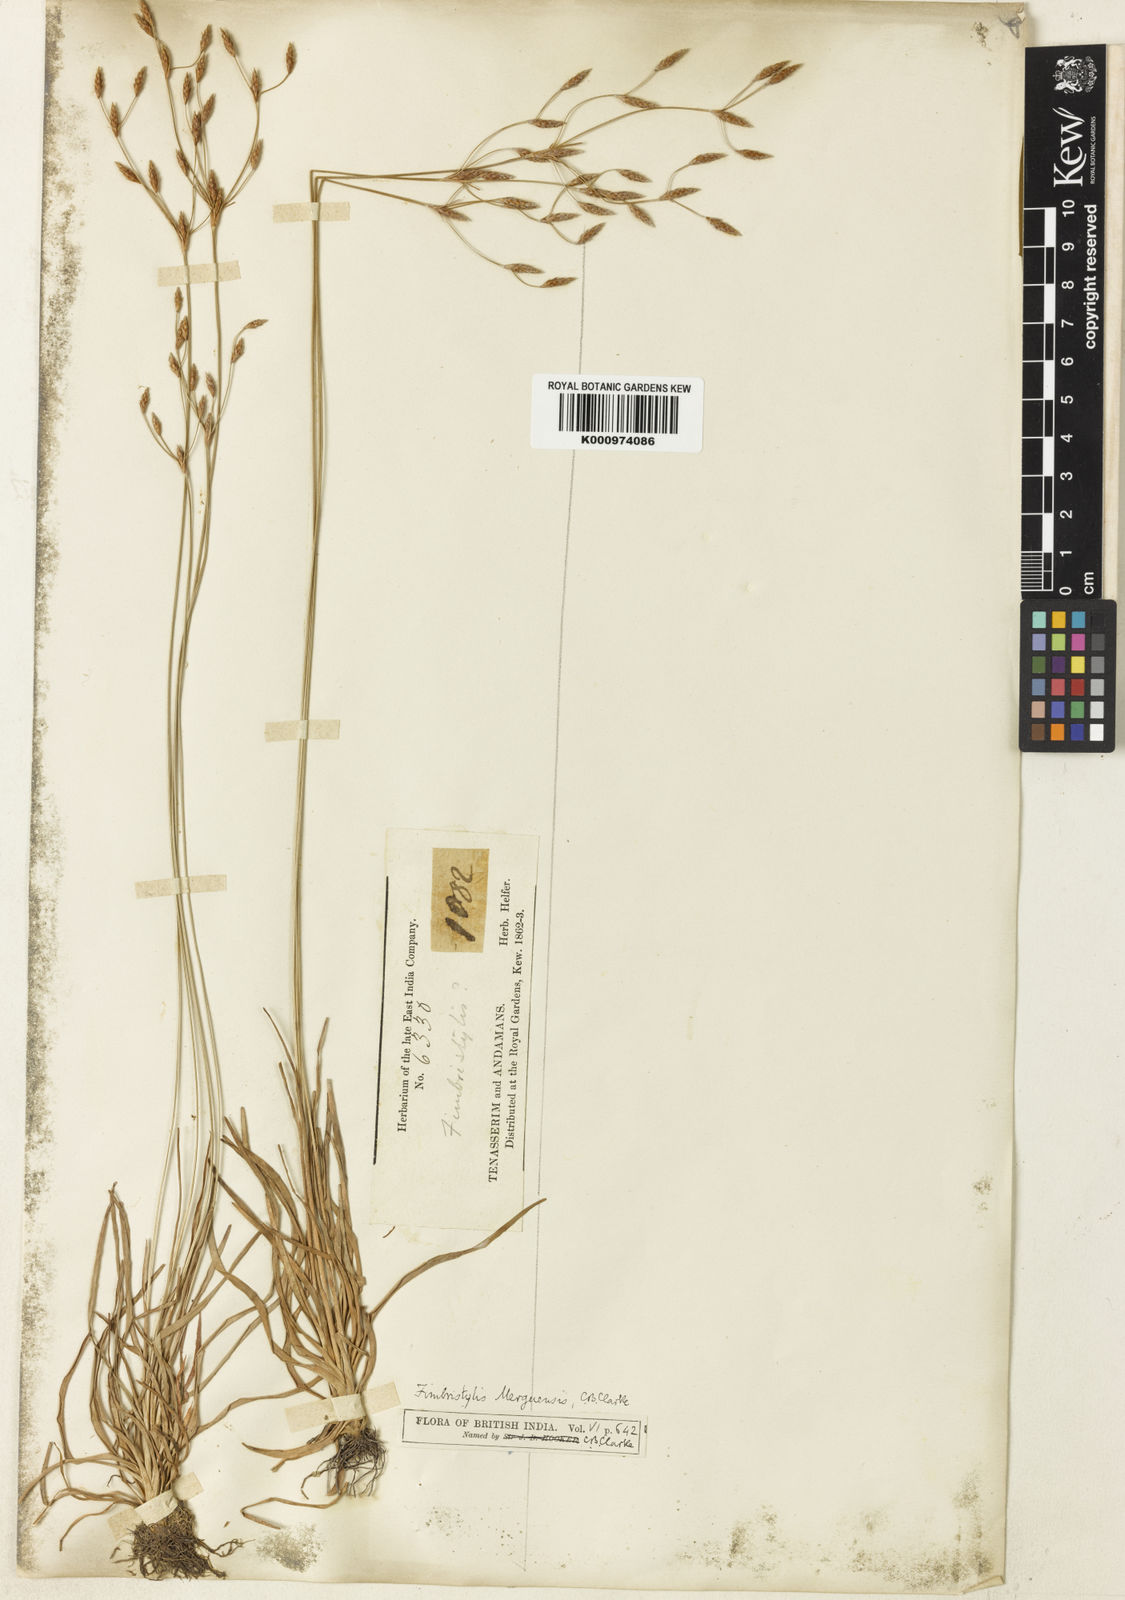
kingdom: Plantae
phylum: Tracheophyta
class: Liliopsida
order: Poales
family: Cyperaceae
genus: Fimbristylis
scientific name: Fimbristylis merguensis
